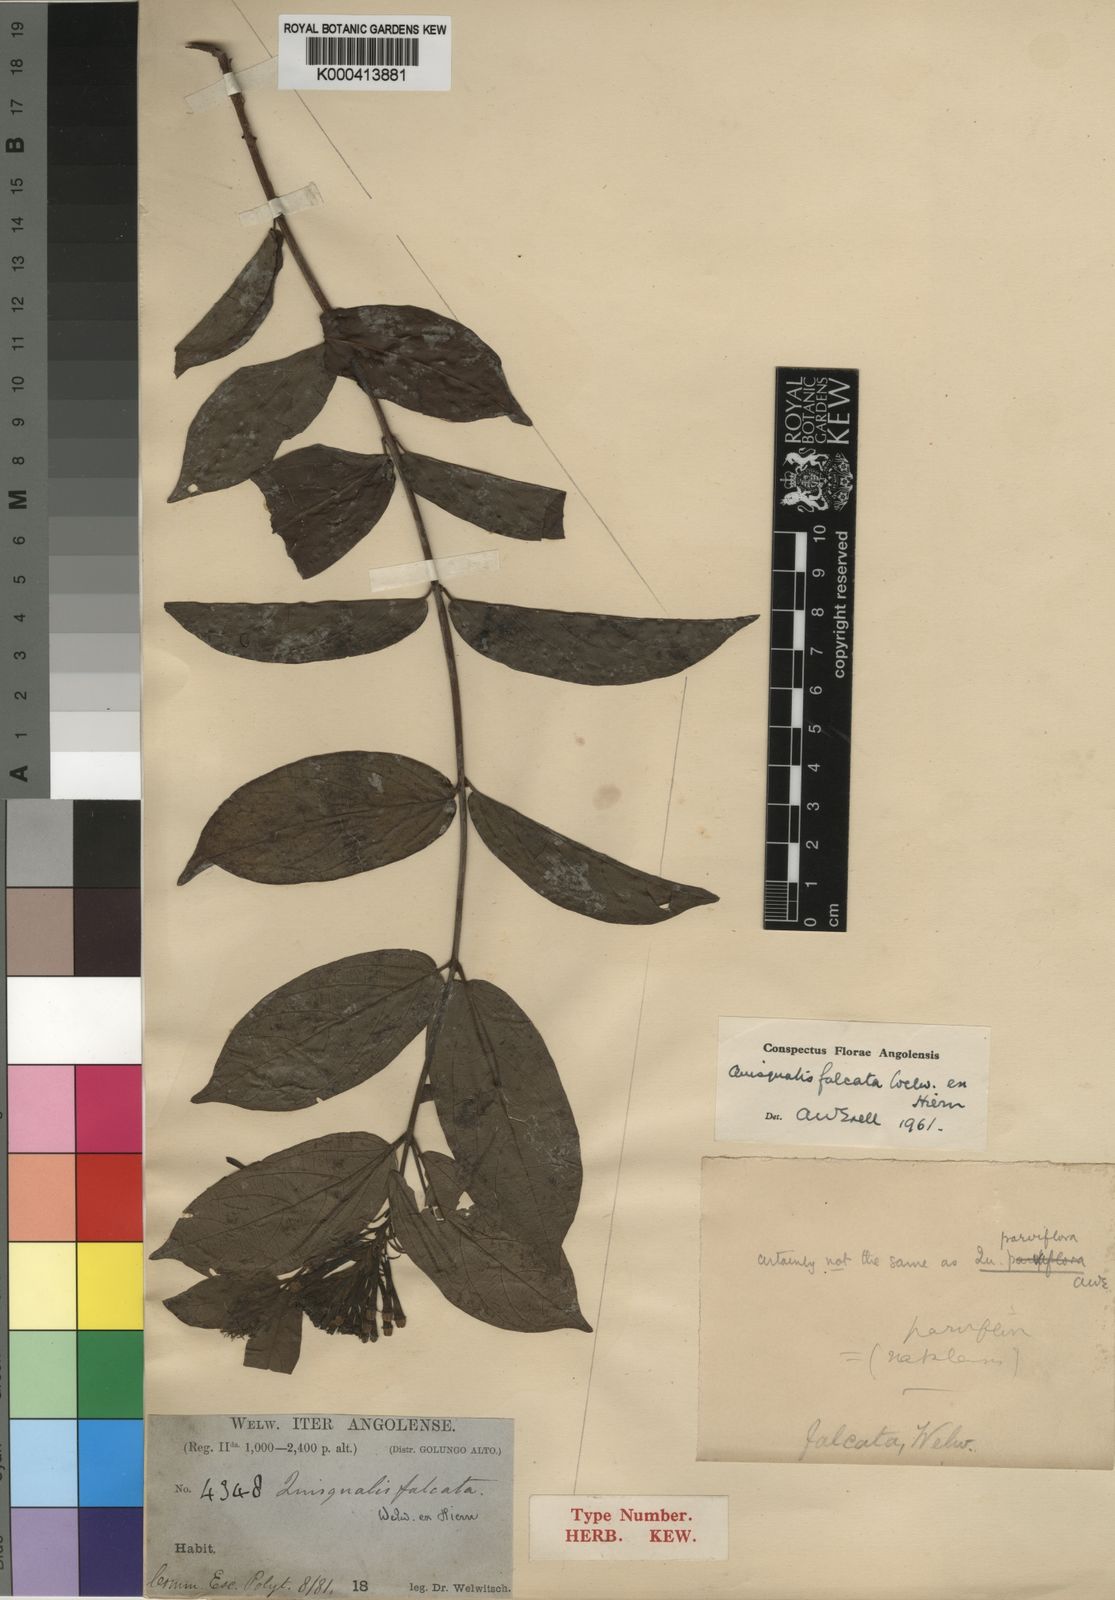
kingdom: Plantae
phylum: Tracheophyta
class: Magnoliopsida
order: Myrtales
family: Combretaceae
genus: Combretum
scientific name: Combretum falcatum
